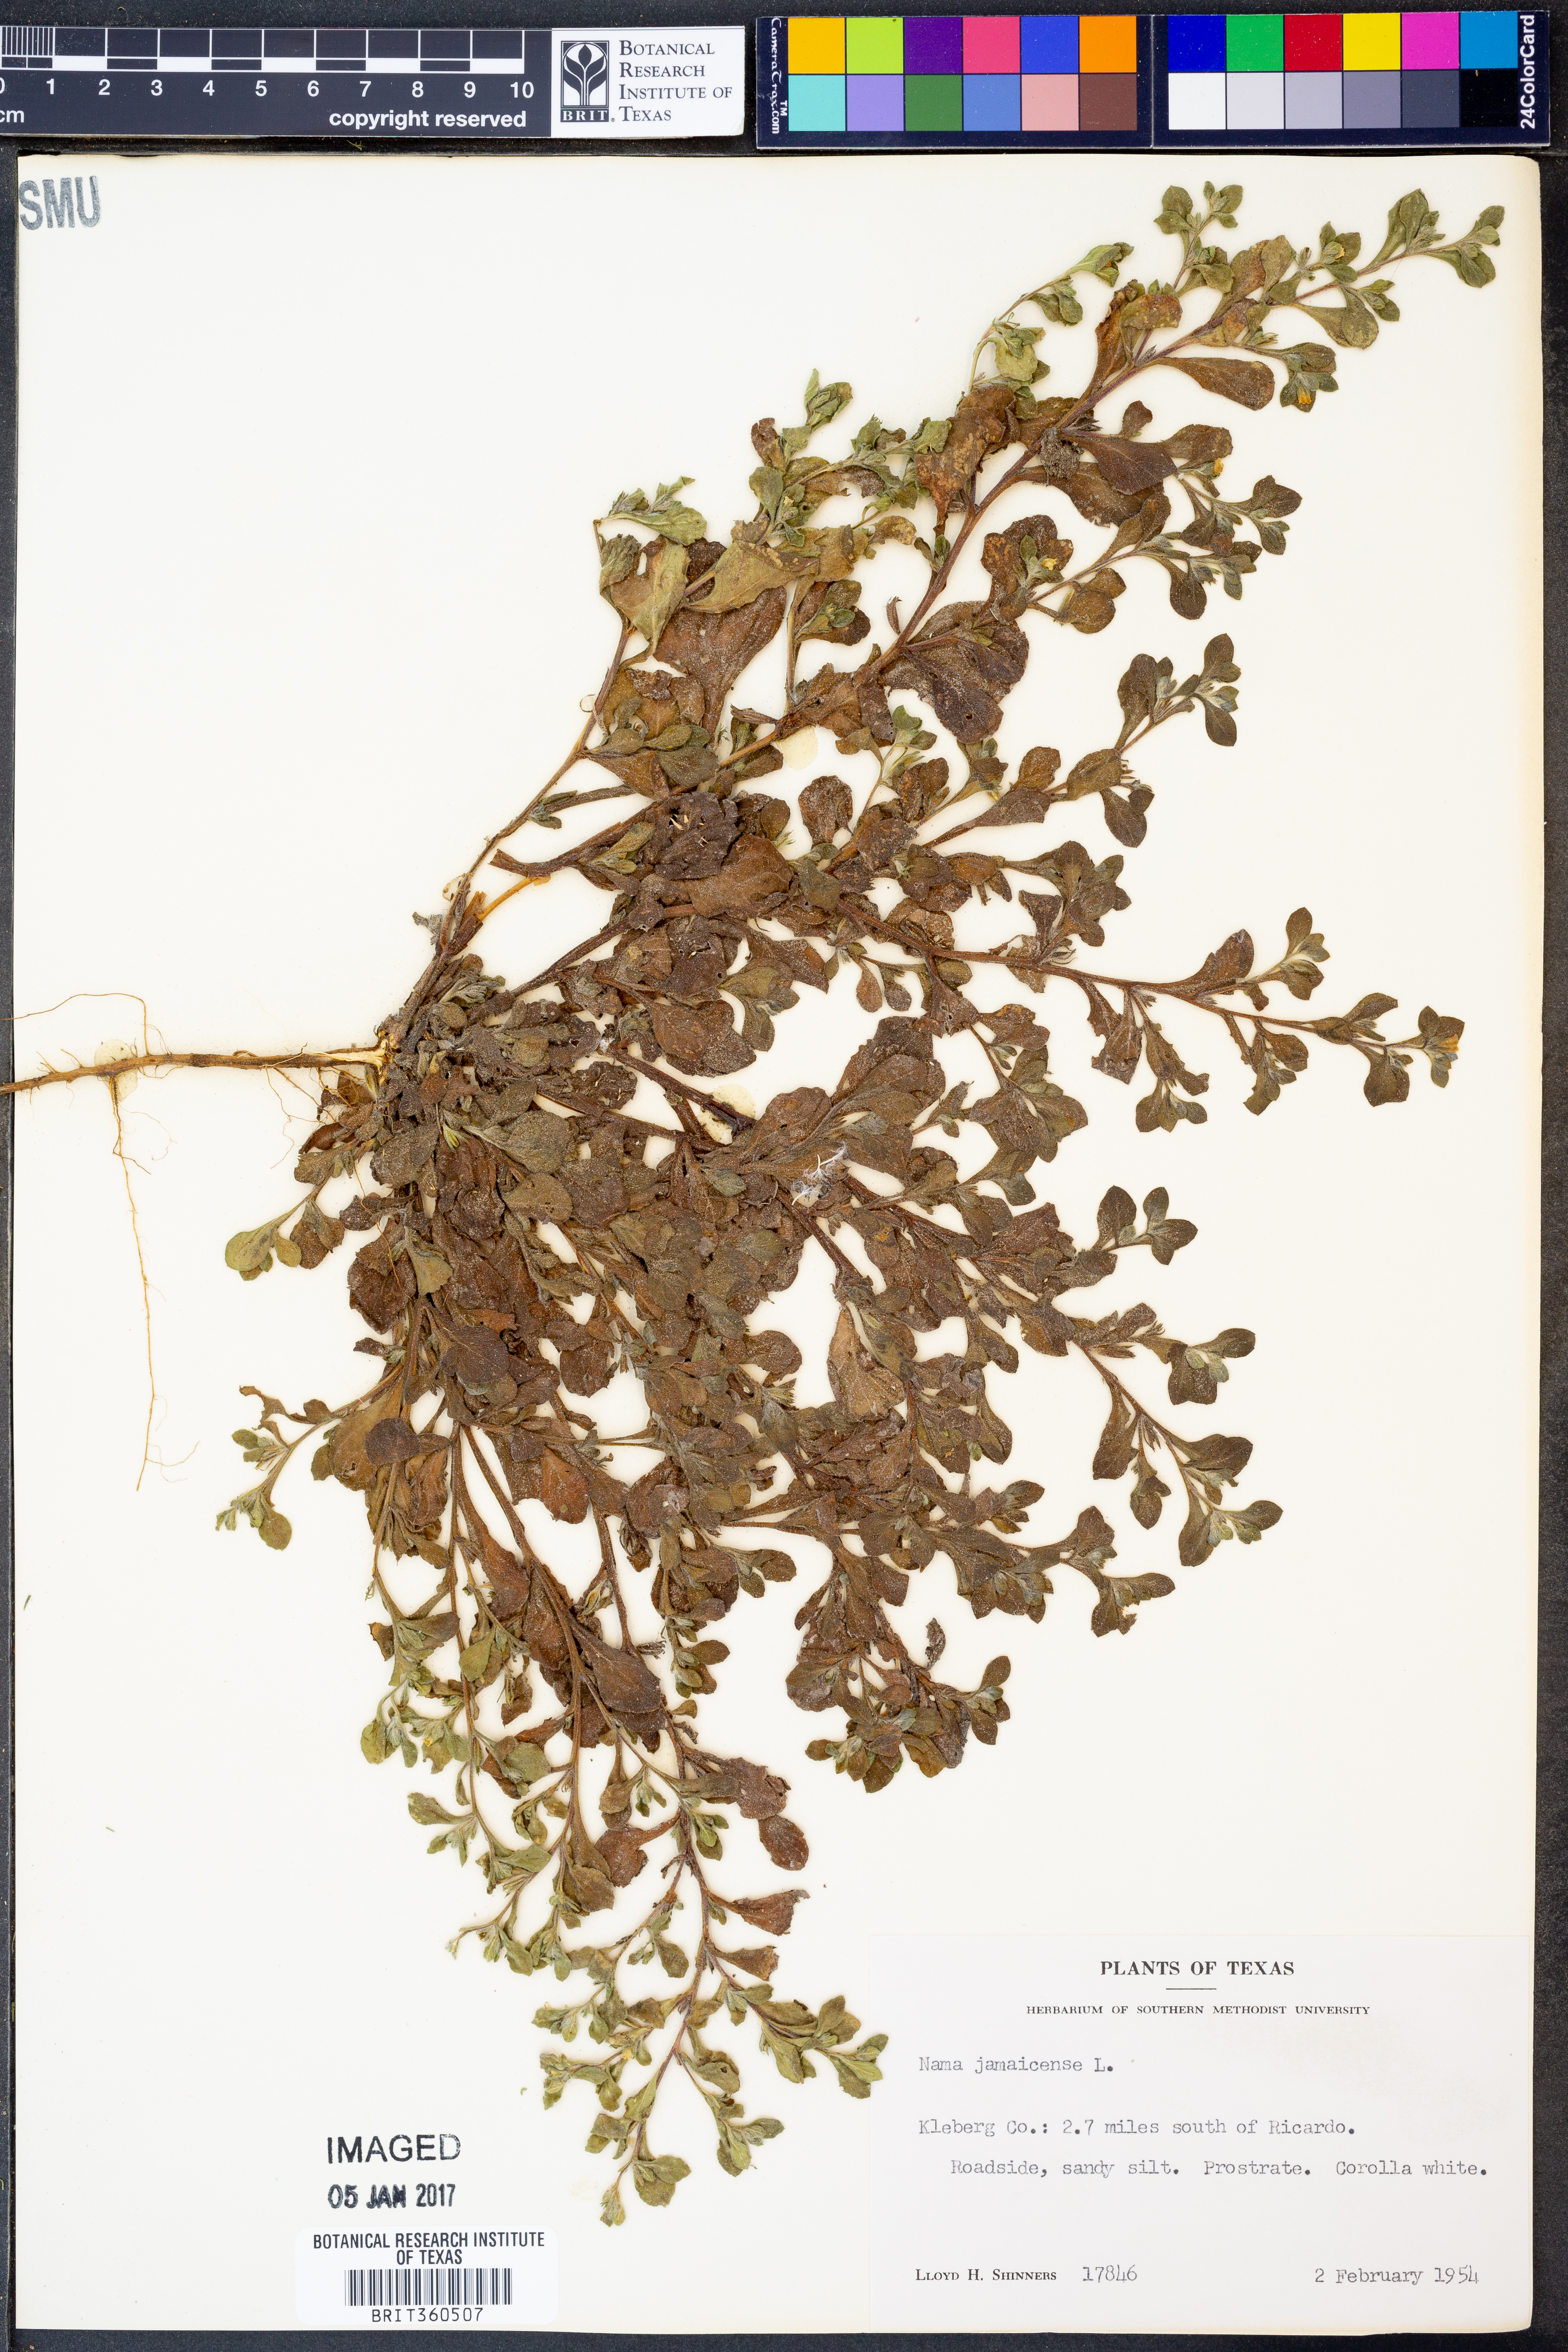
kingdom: Plantae
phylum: Tracheophyta
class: Magnoliopsida
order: Boraginales
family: Namaceae
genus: Nama
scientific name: Nama jamaicense
